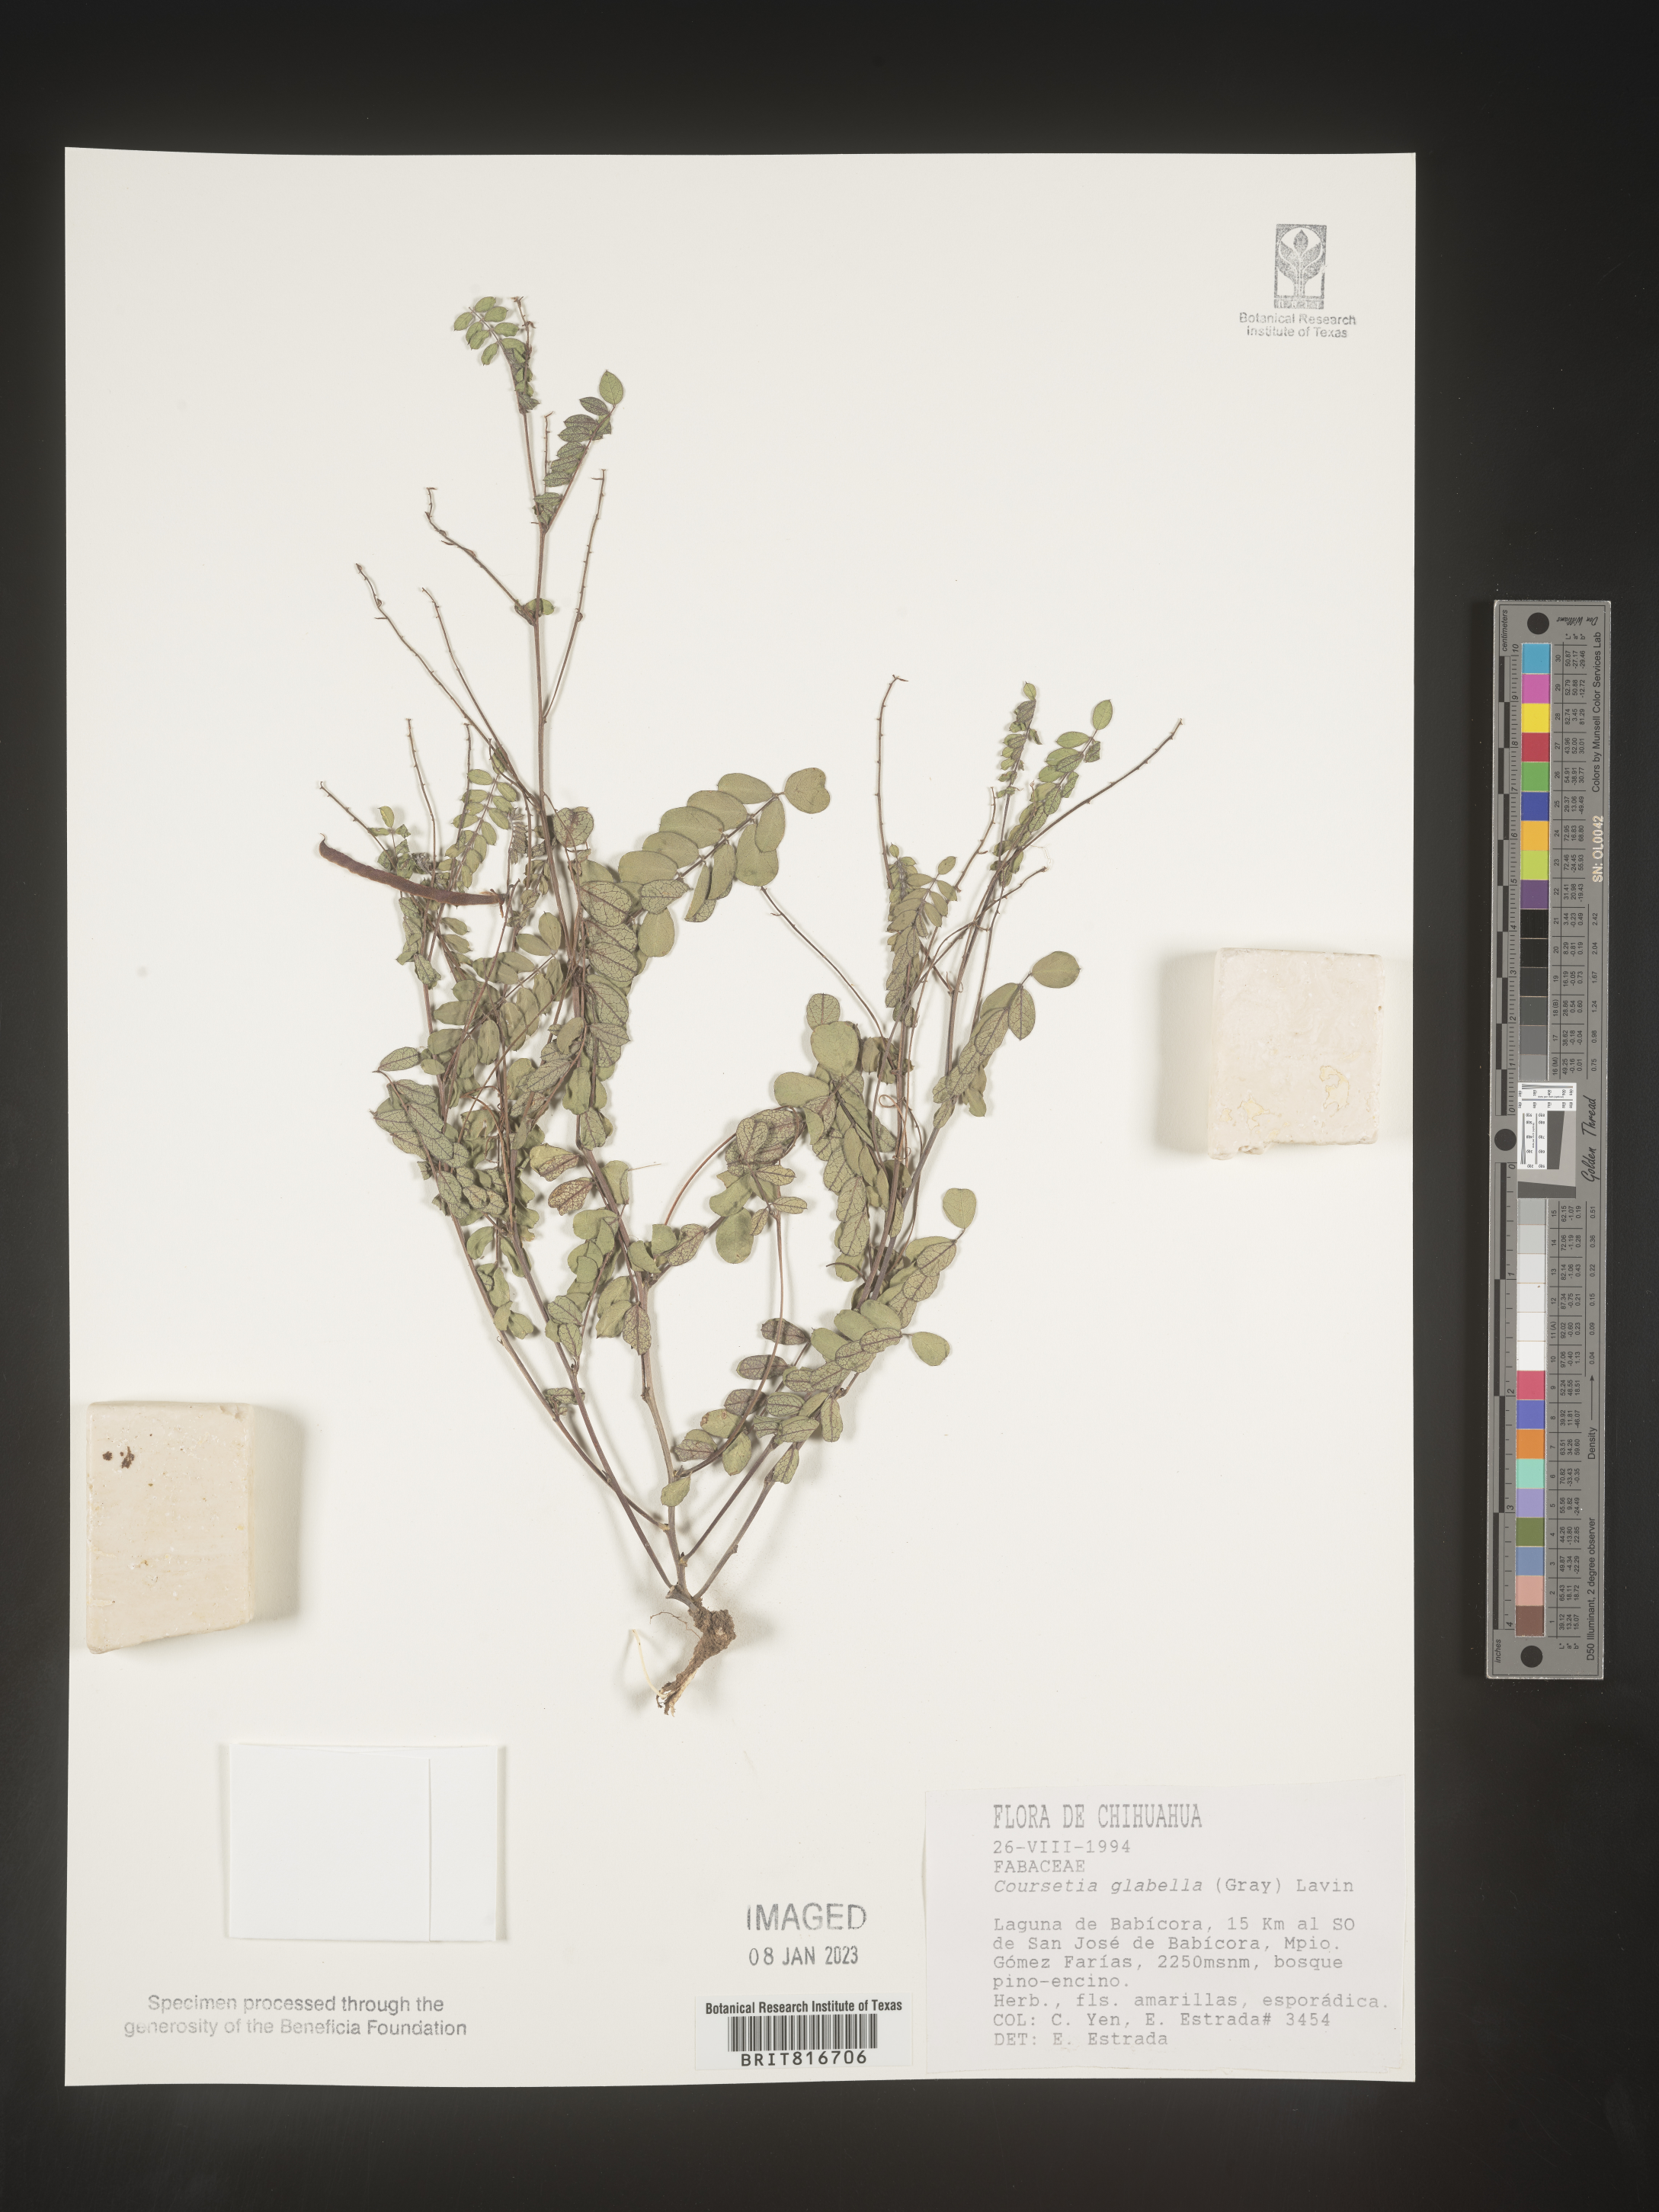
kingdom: Plantae
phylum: Tracheophyta
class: Magnoliopsida
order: Fabales
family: Fabaceae
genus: Coursetia
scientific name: Coursetia
